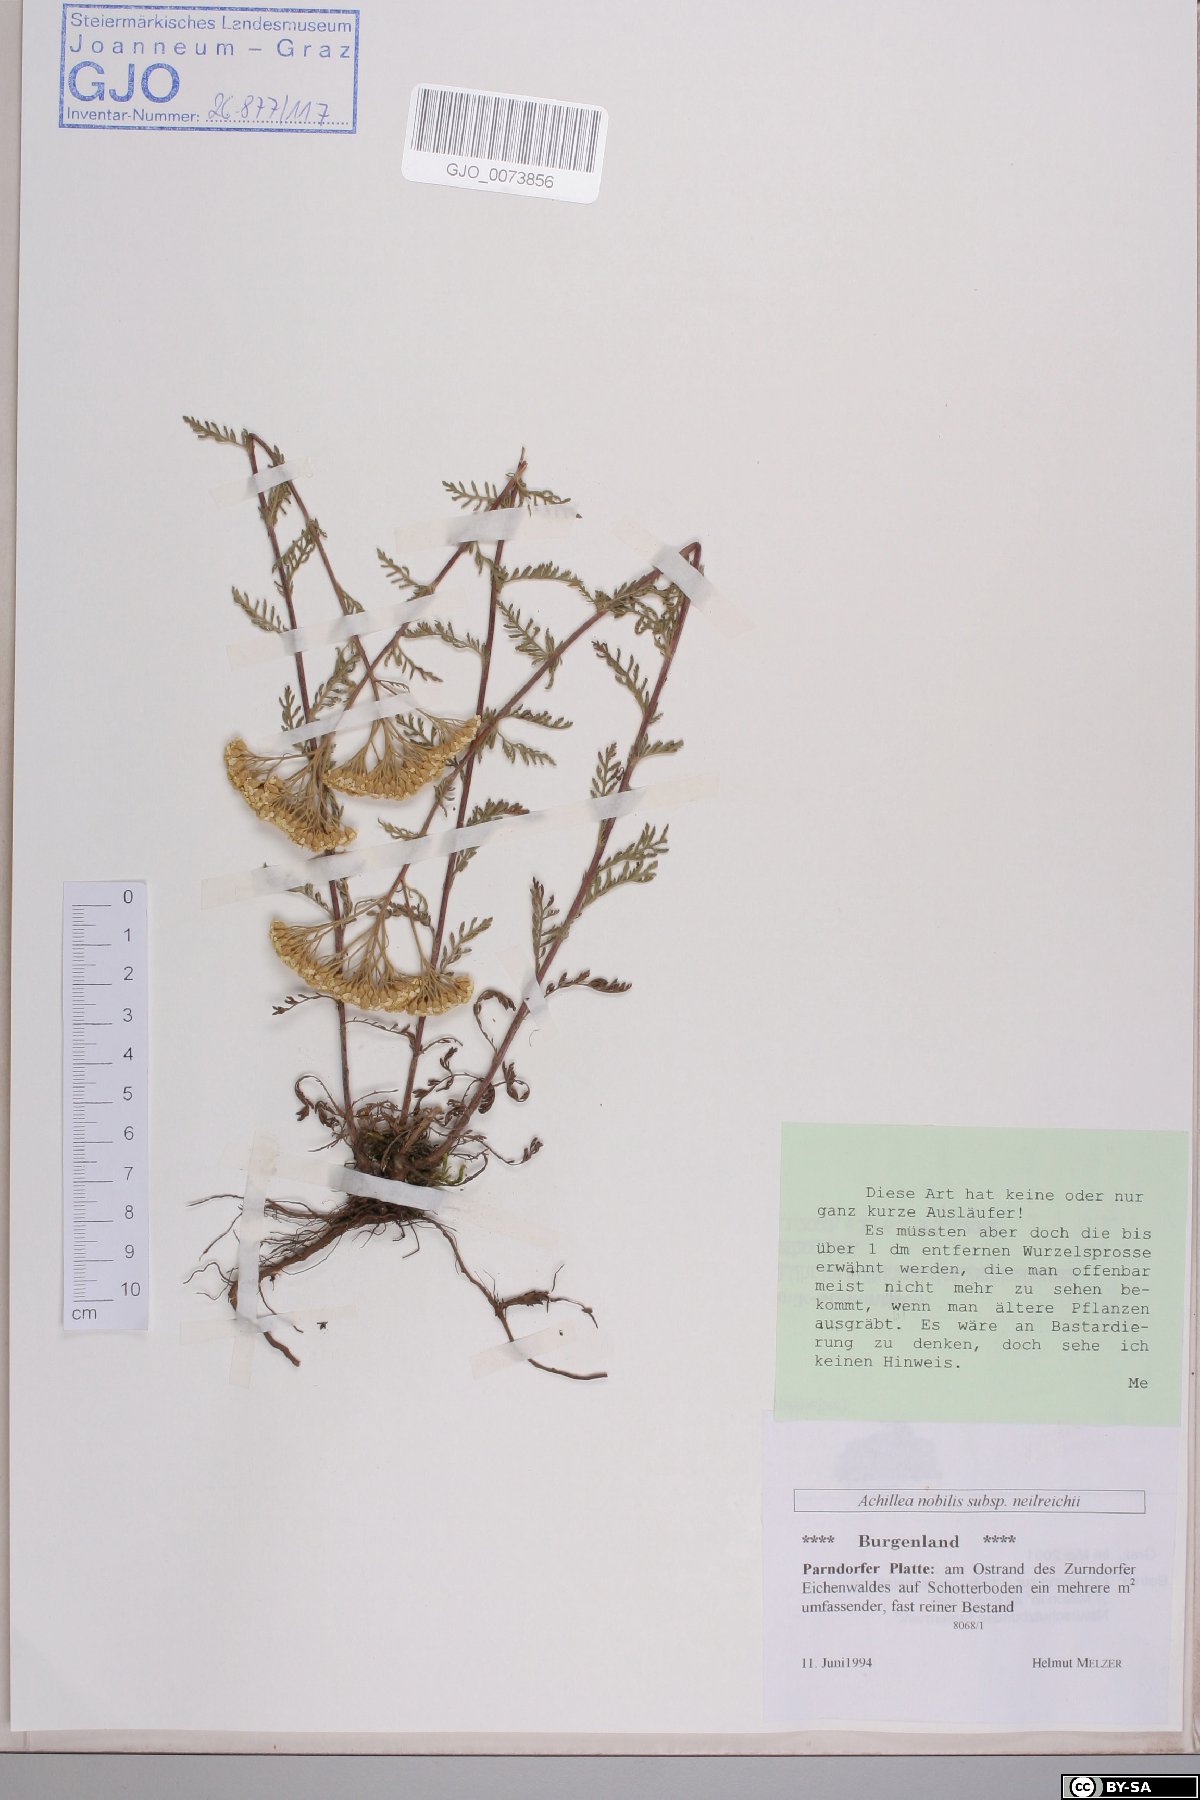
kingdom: Plantae
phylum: Tracheophyta
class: Magnoliopsida
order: Asterales
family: Asteraceae
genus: Achillea
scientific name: Achillea nobilis
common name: Noble yarrow
